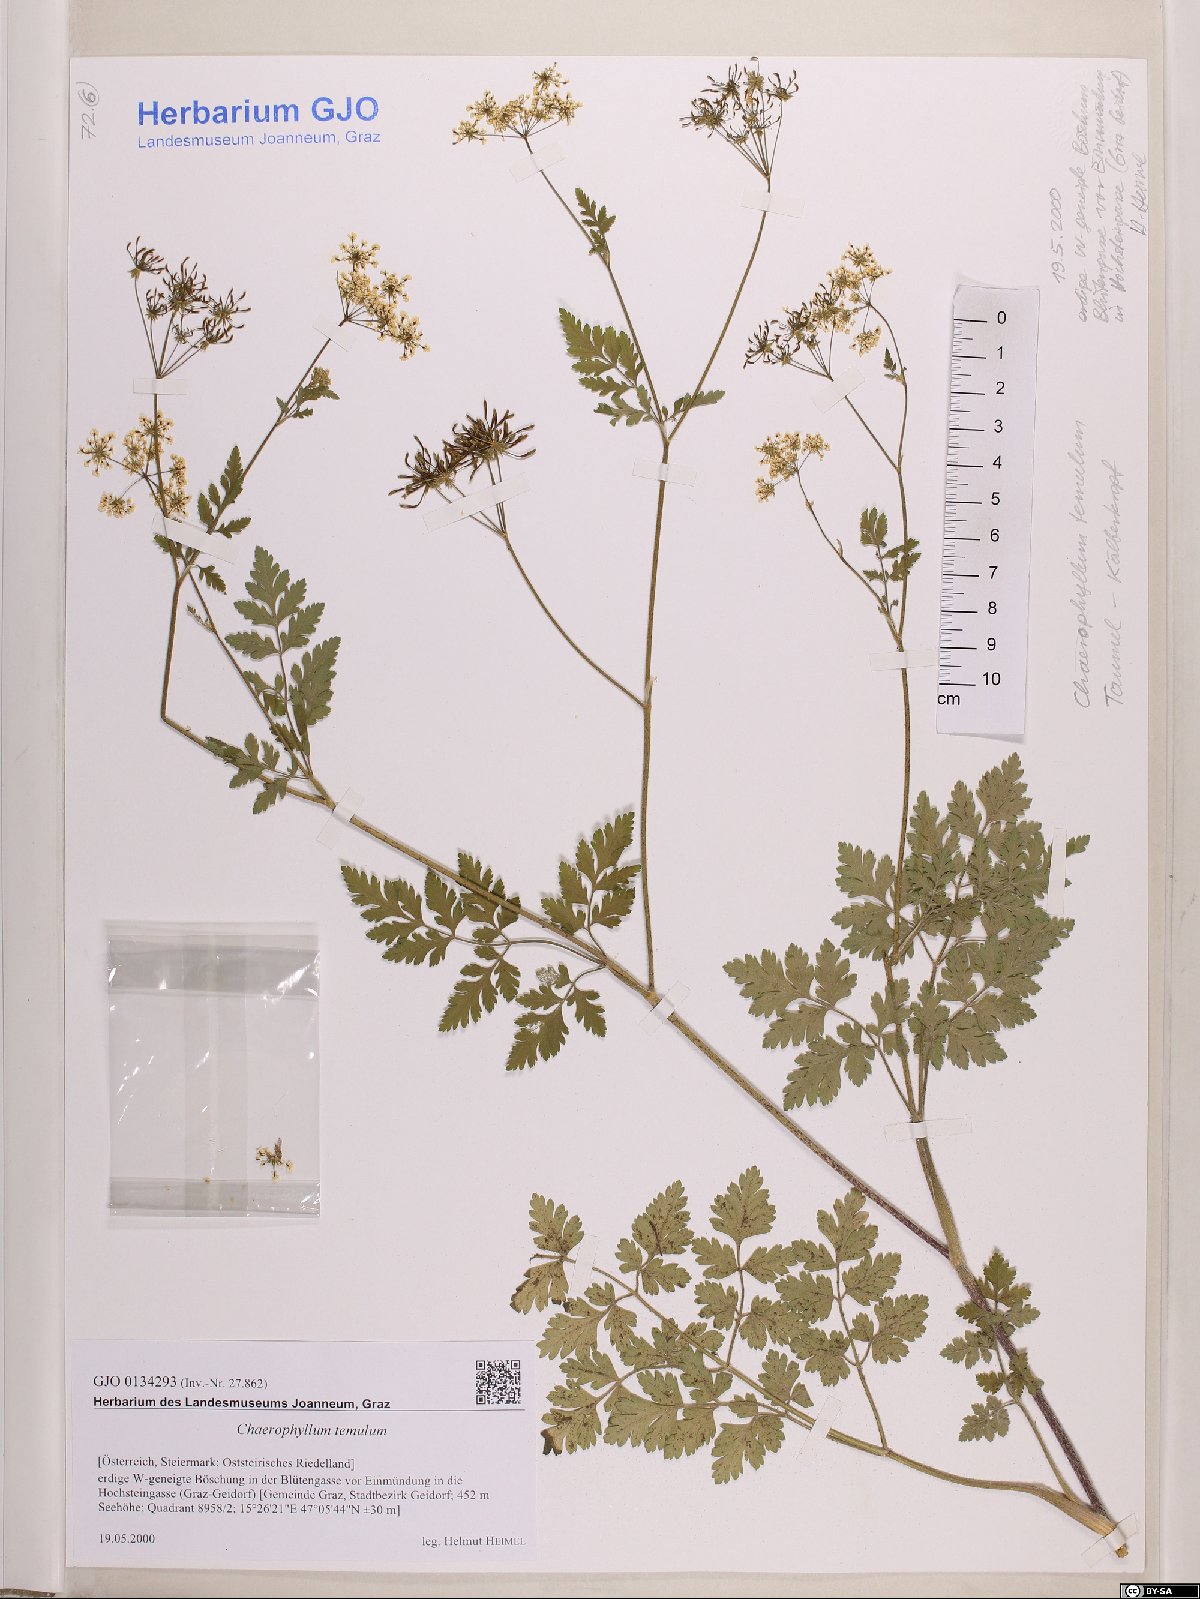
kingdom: Plantae
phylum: Tracheophyta
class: Magnoliopsida
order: Apiales
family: Apiaceae
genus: Chaerophyllum
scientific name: Chaerophyllum temulum
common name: Rough chervil
